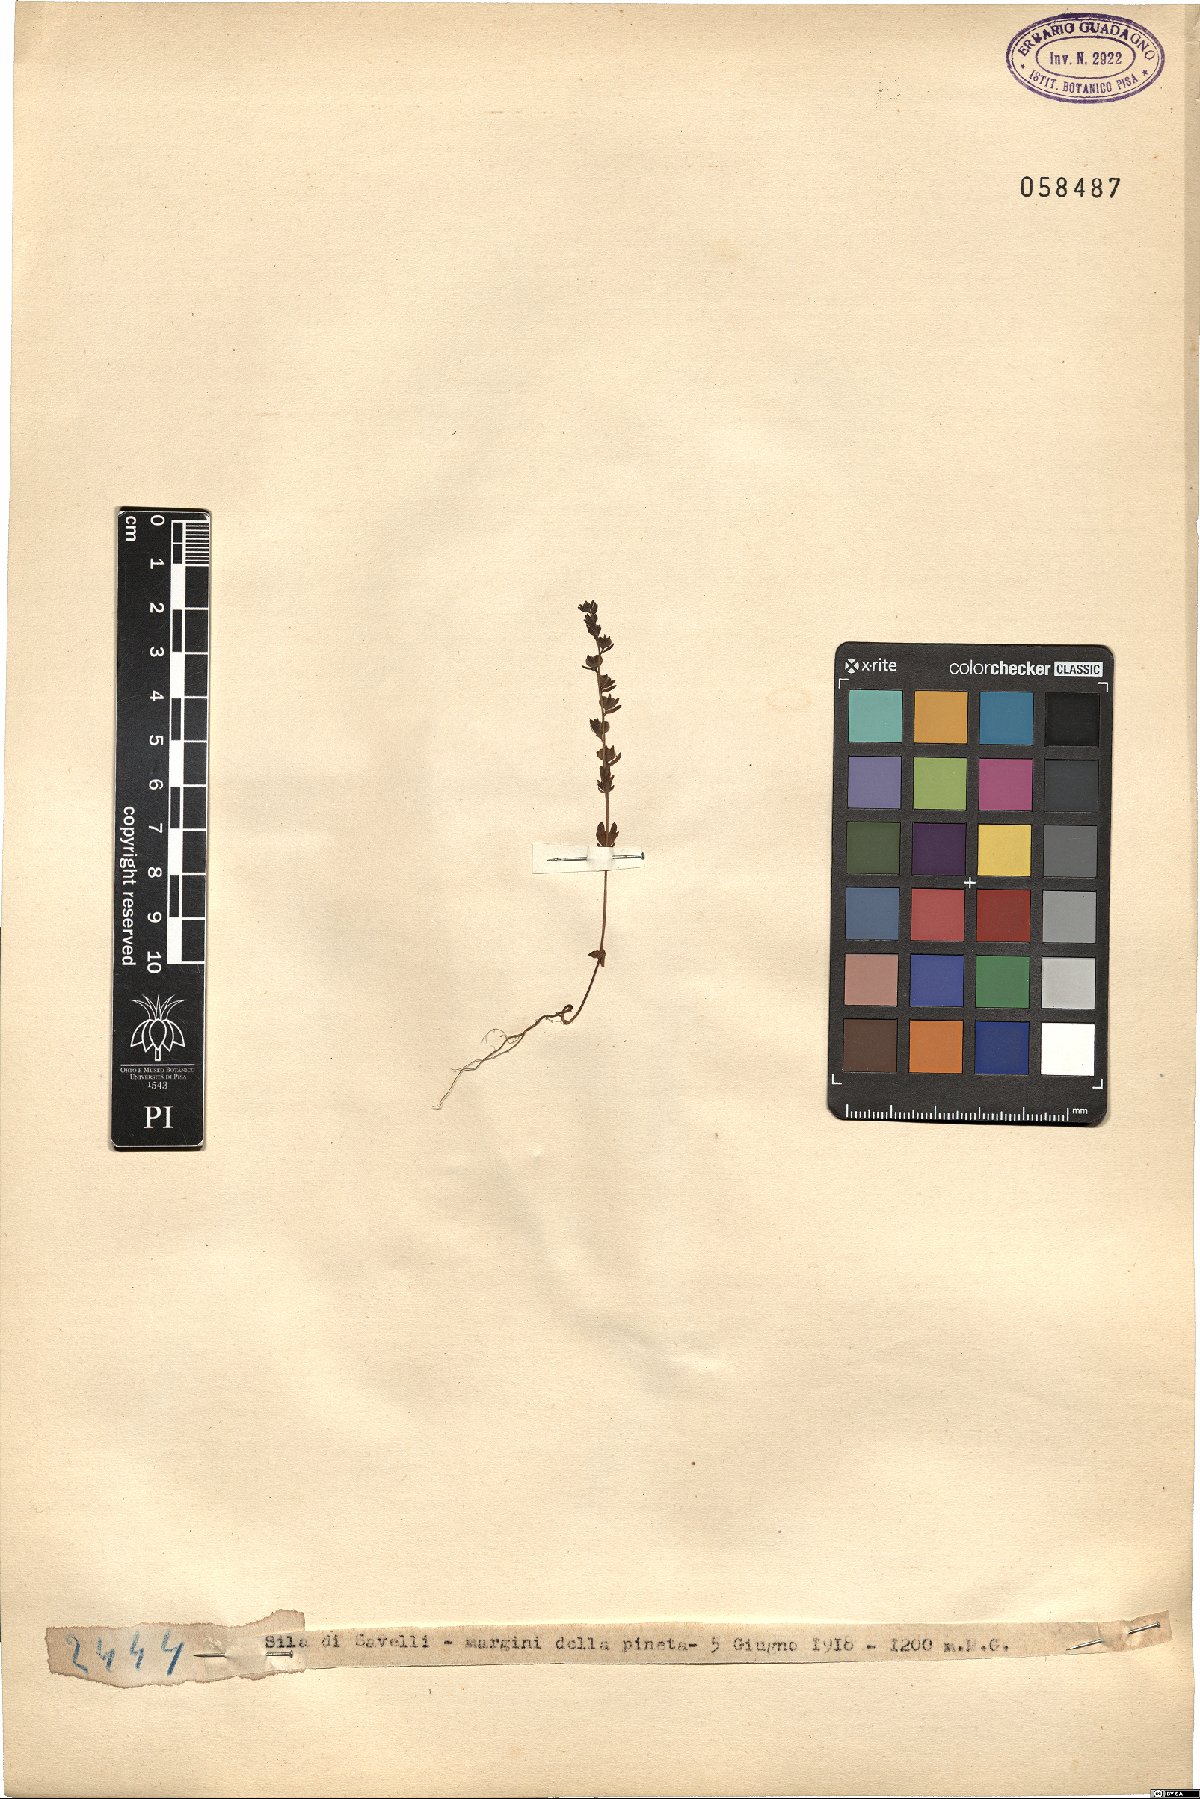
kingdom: Plantae
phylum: Tracheophyta
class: Magnoliopsida
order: Lamiales
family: Plantaginaceae
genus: Veronica
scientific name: Veronica
